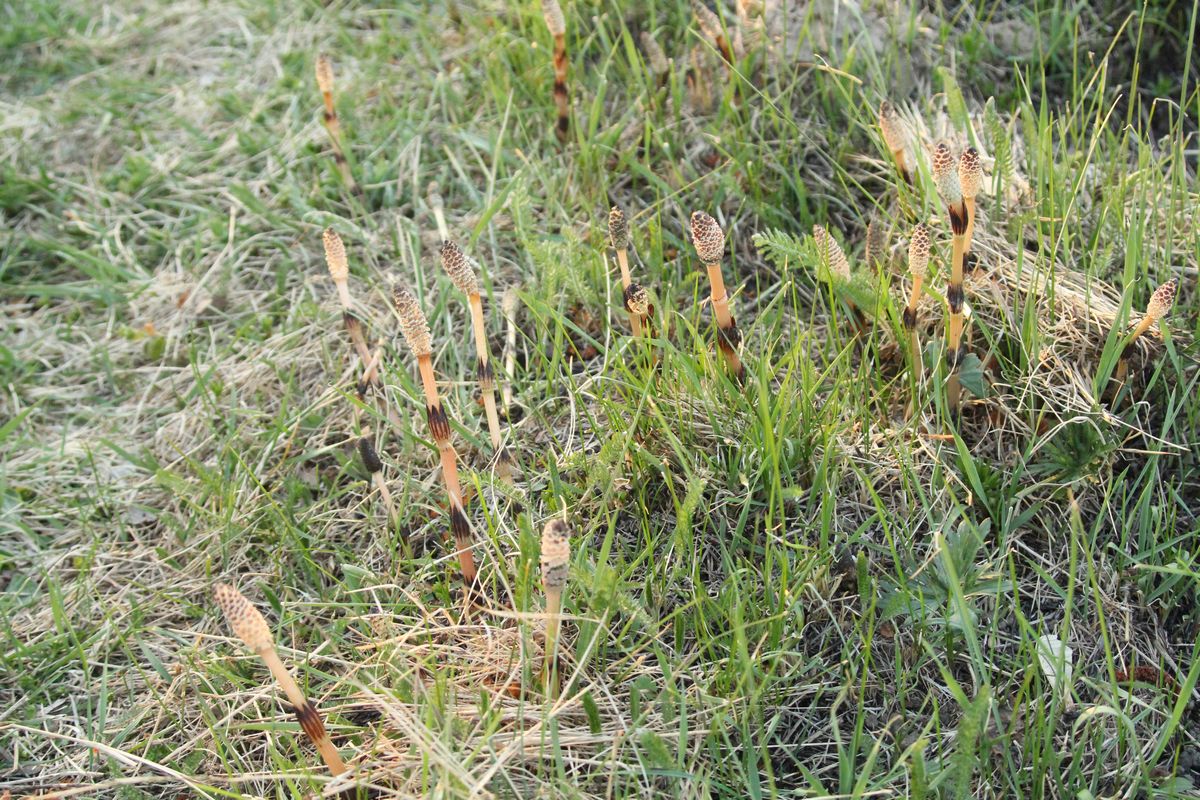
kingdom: Plantae
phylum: Tracheophyta
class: Polypodiopsida
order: Equisetales
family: Equisetaceae
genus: Equisetum
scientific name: Equisetum arvense
